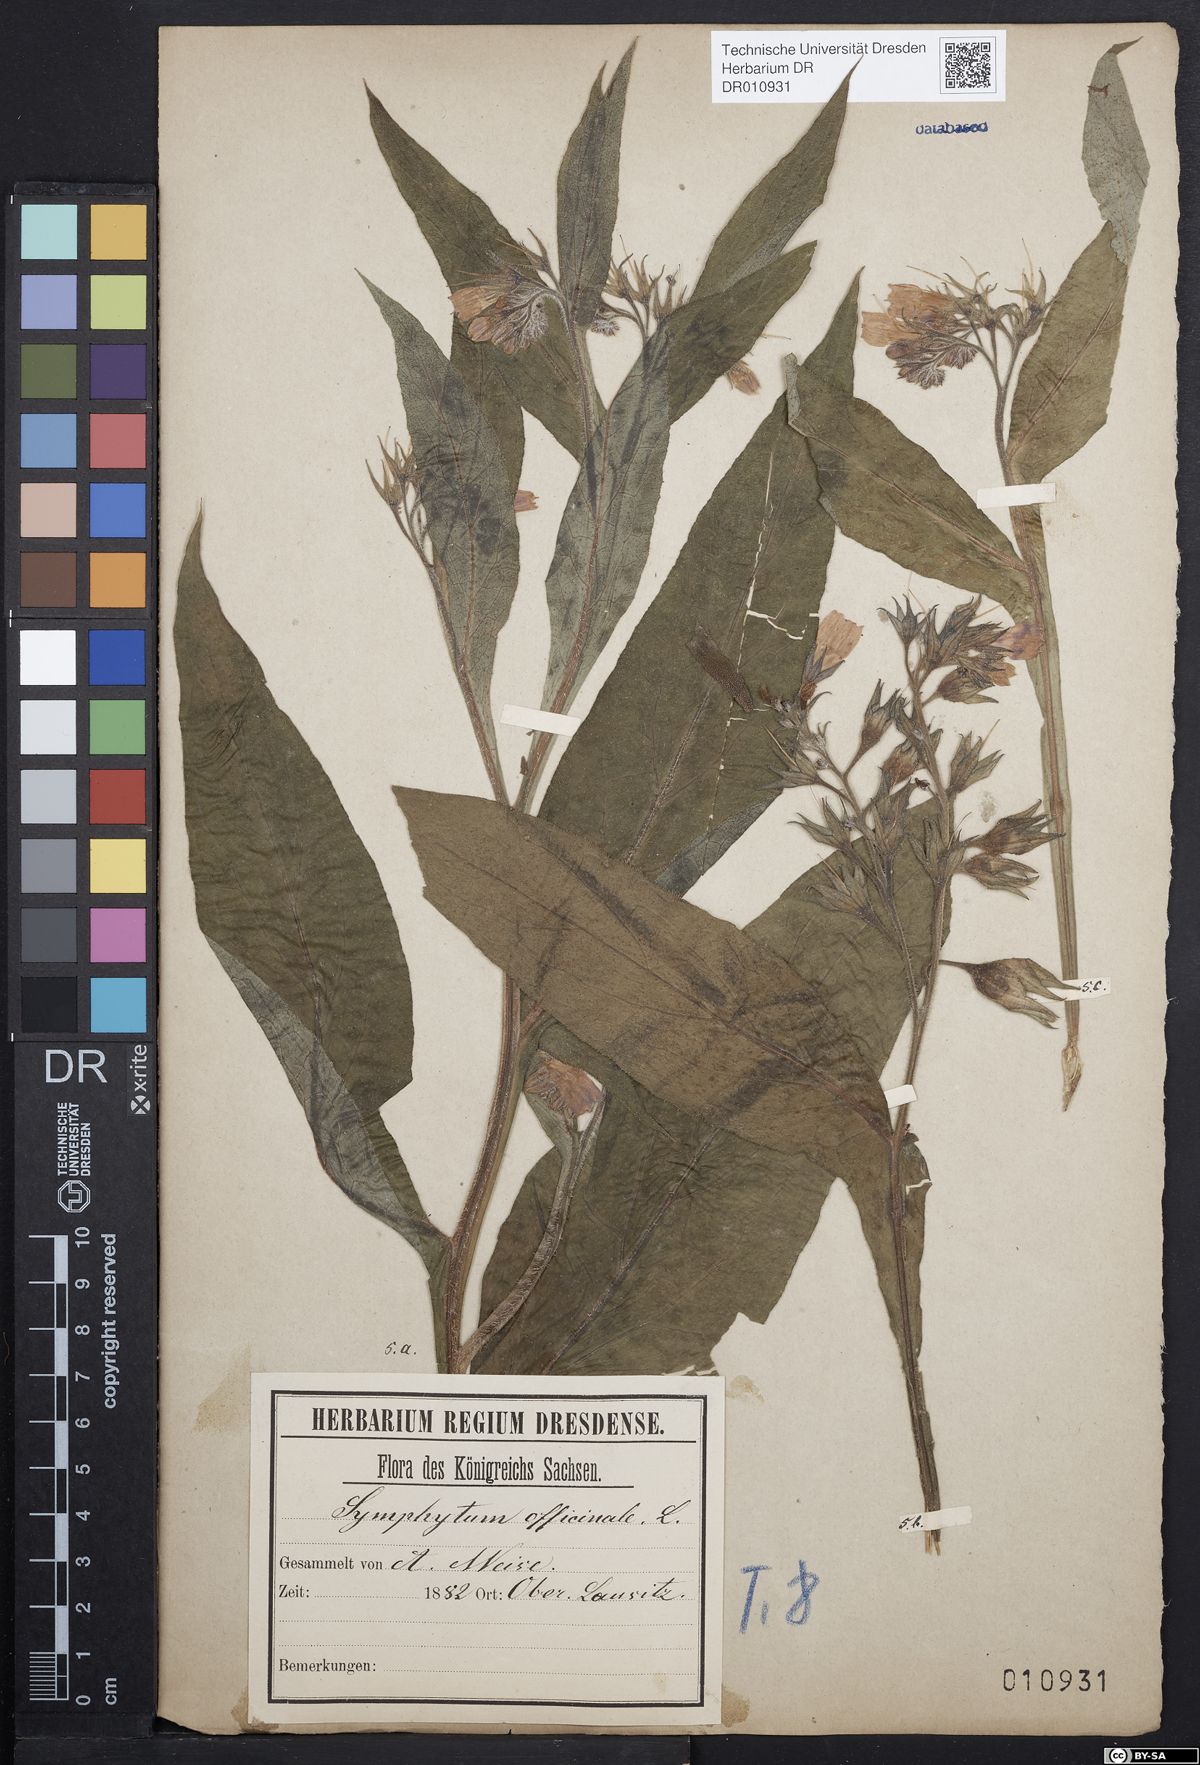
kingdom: Plantae
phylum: Tracheophyta
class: Magnoliopsida
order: Boraginales
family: Boraginaceae
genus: Symphytum
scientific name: Symphytum officinale
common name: Common comfrey
